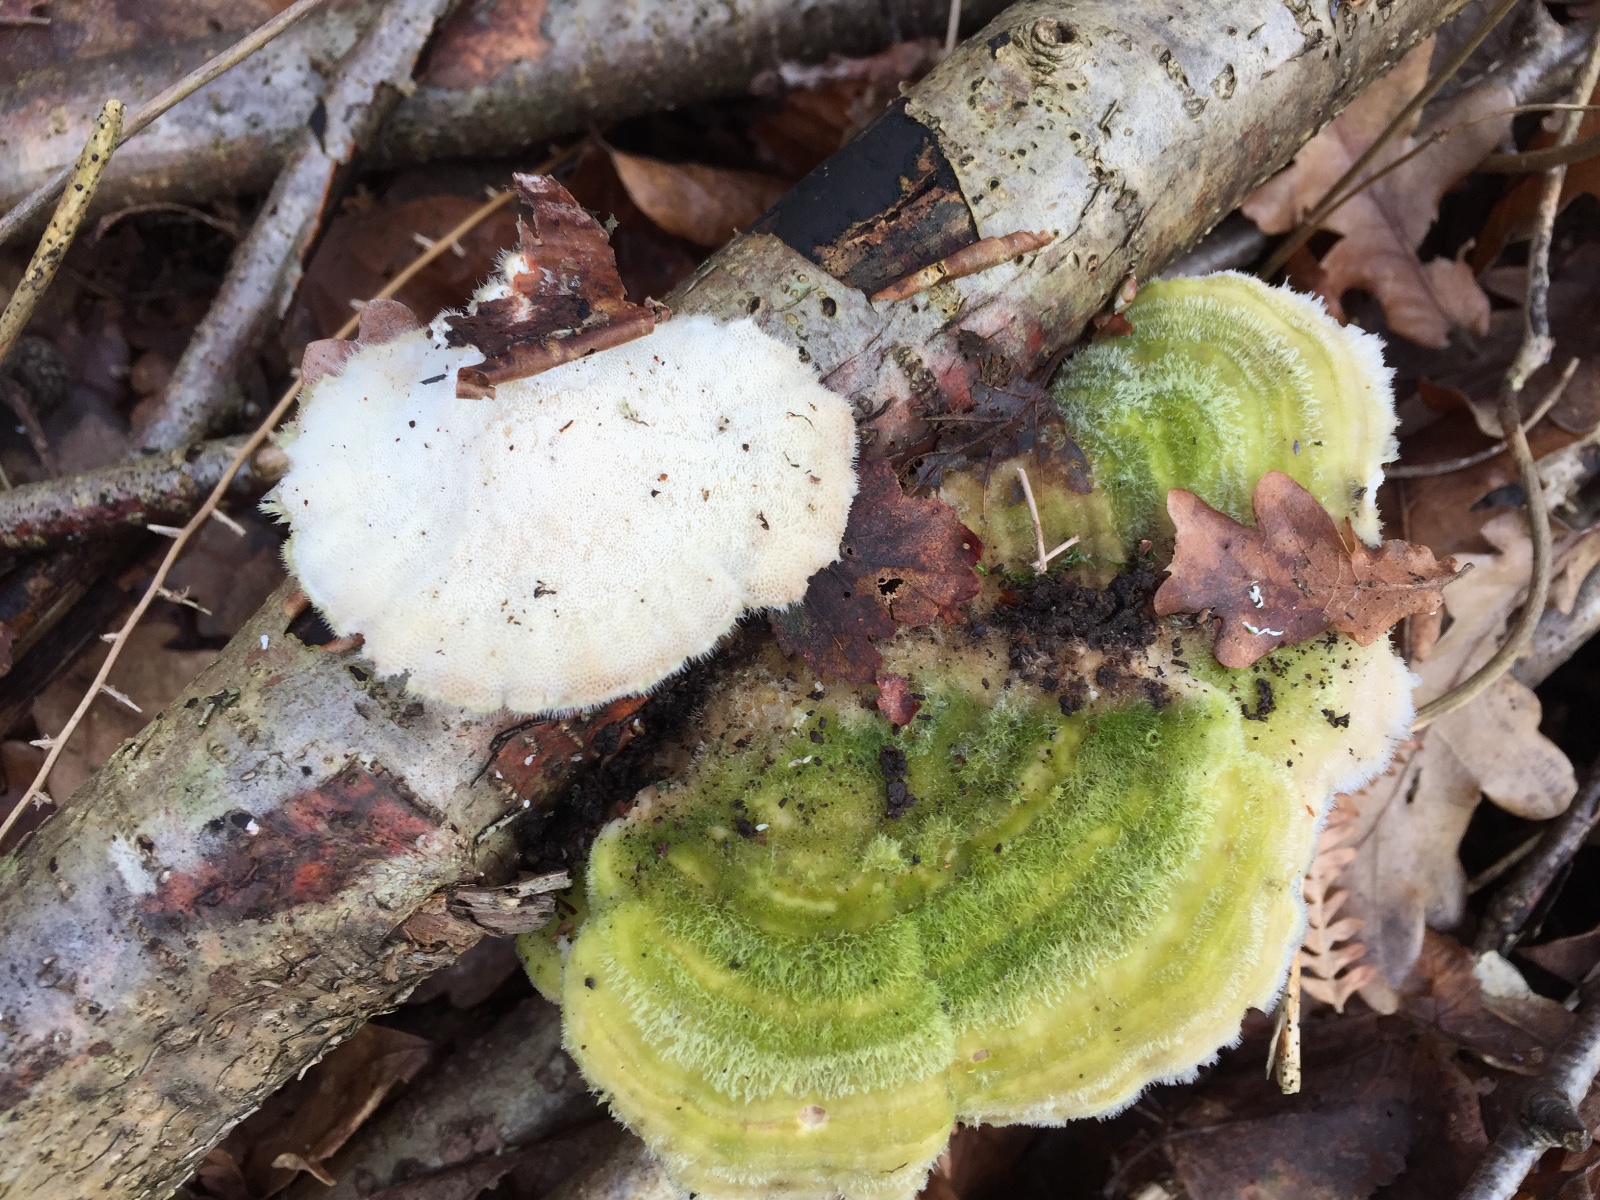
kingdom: Fungi
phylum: Basidiomycota
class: Agaricomycetes
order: Polyporales
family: Polyporaceae
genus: Trametes
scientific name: Trametes hirsuta
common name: håret læderporesvamp
